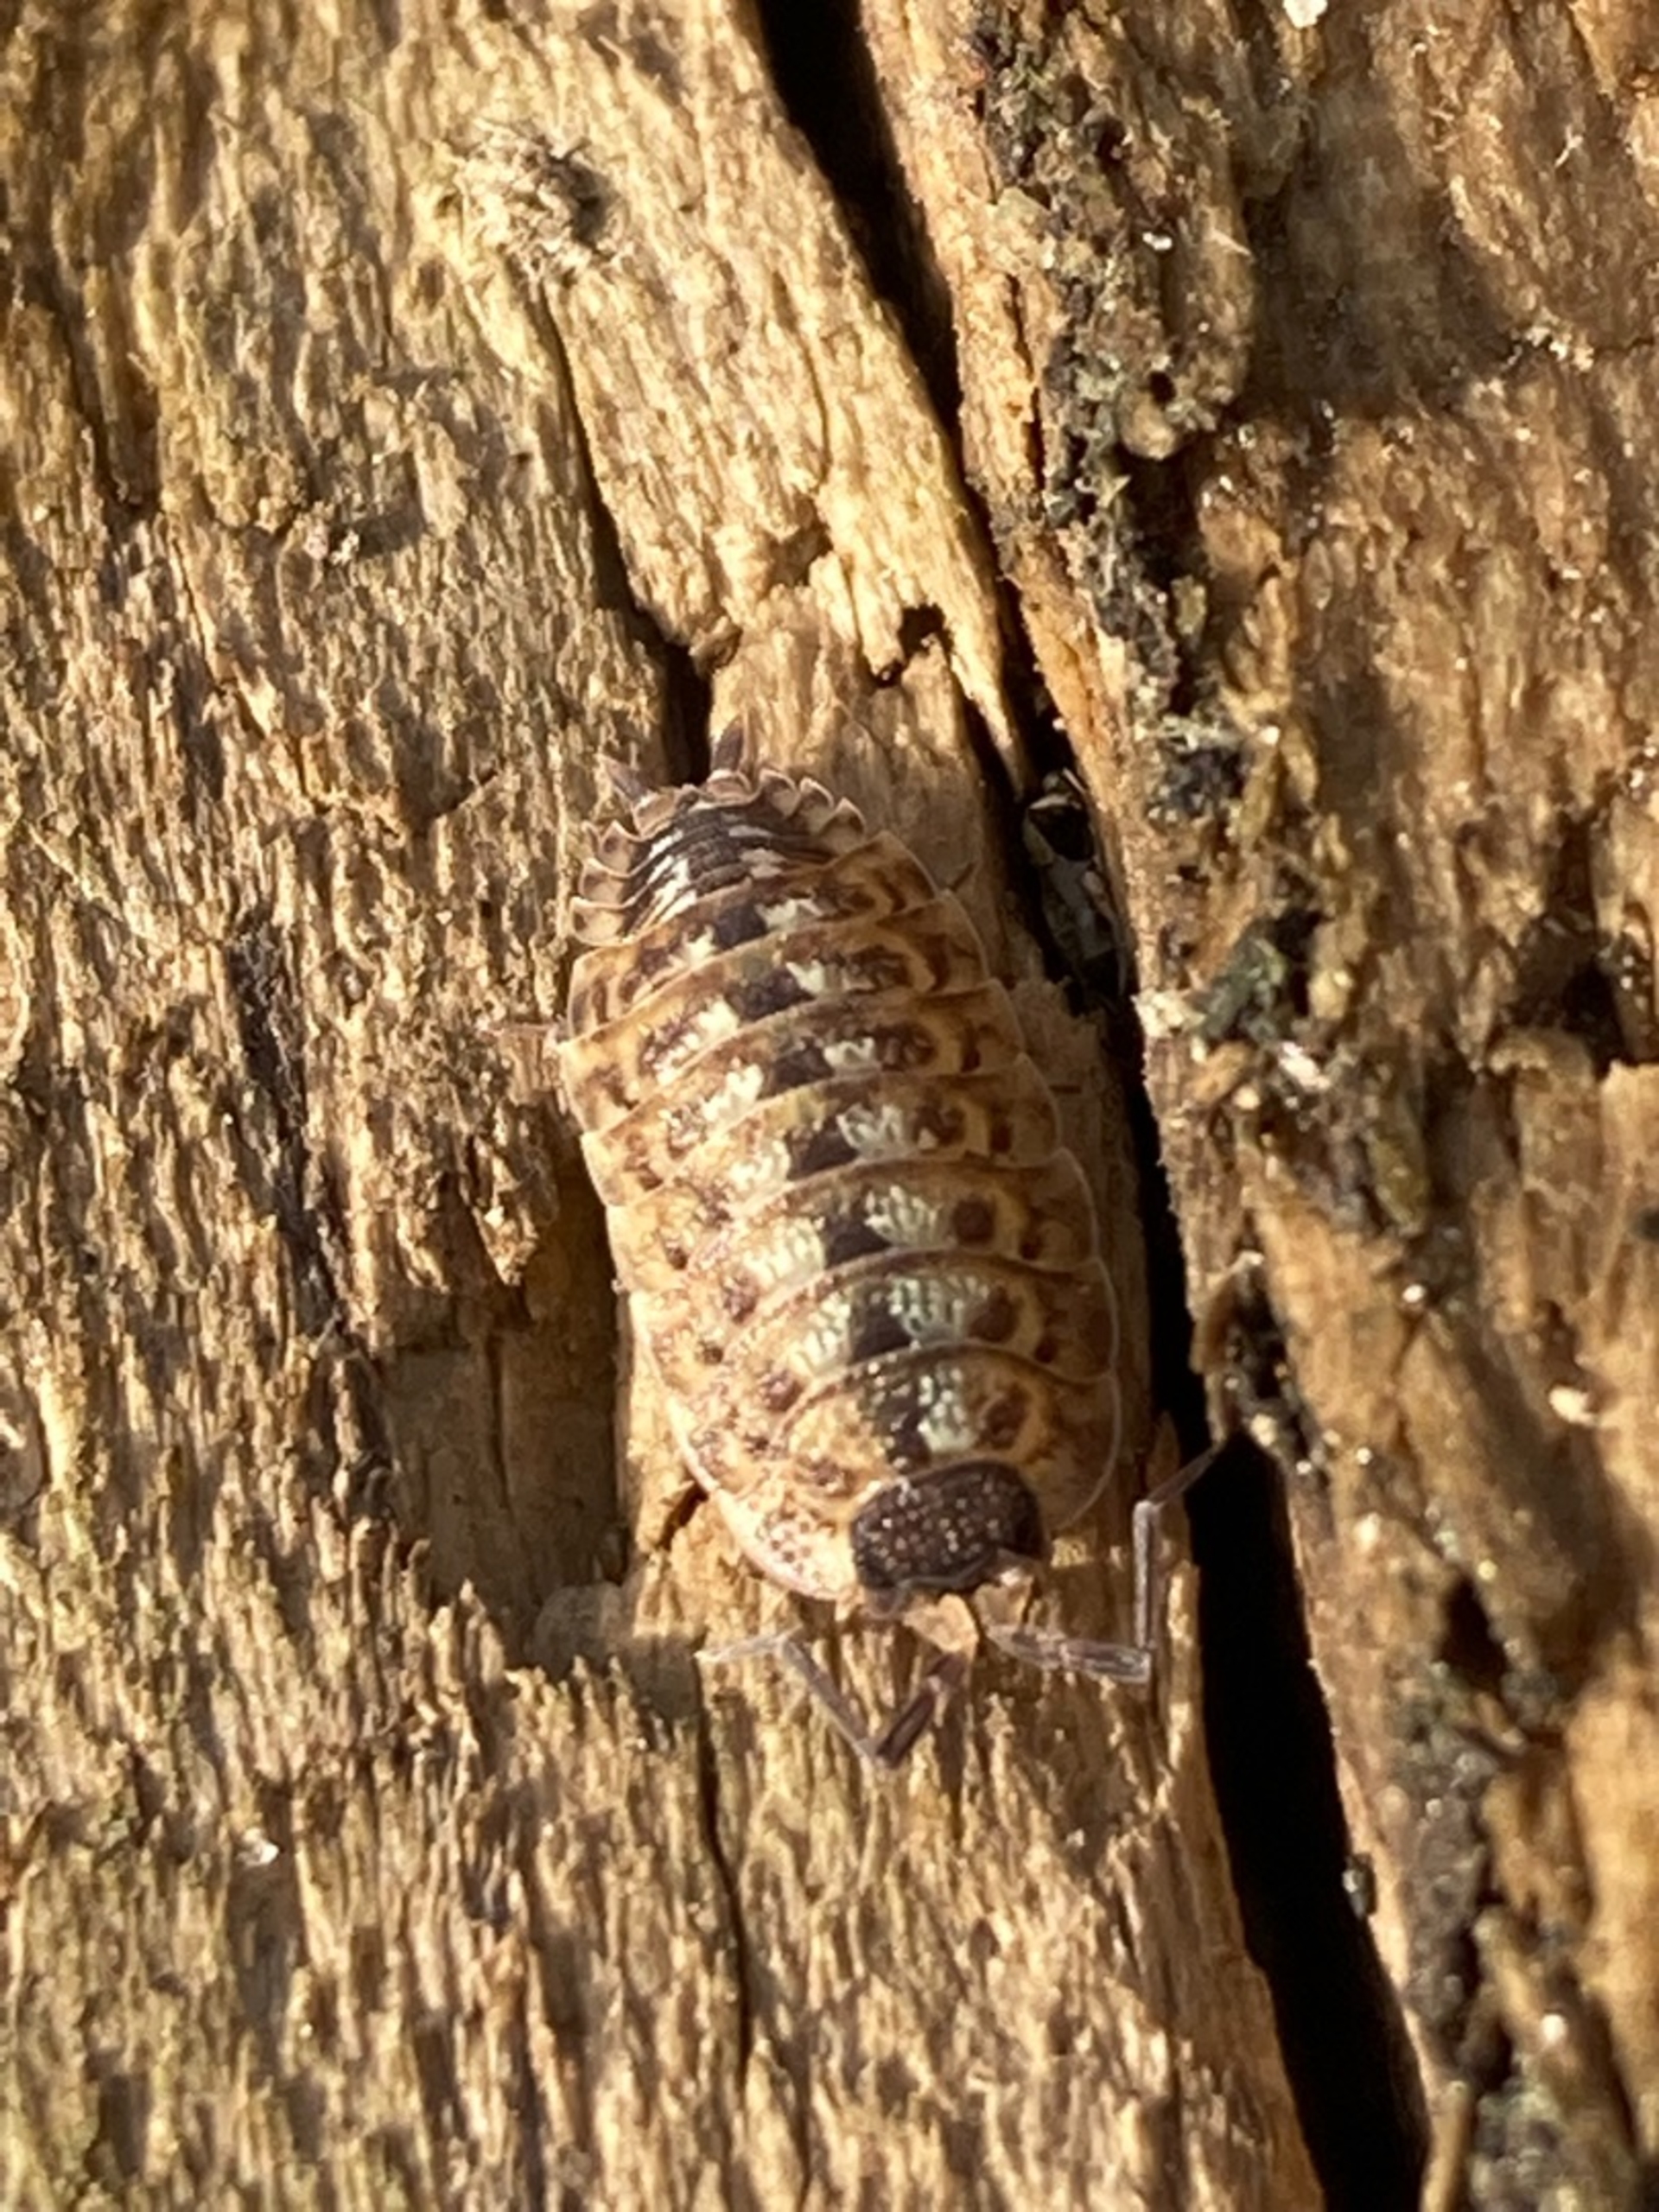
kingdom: Animalia
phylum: Arthropoda
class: Malacostraca
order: Isopoda
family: Porcellionidae
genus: Porcellio
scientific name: Porcellio spinicornis
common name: Sorthovedet bænkebider
